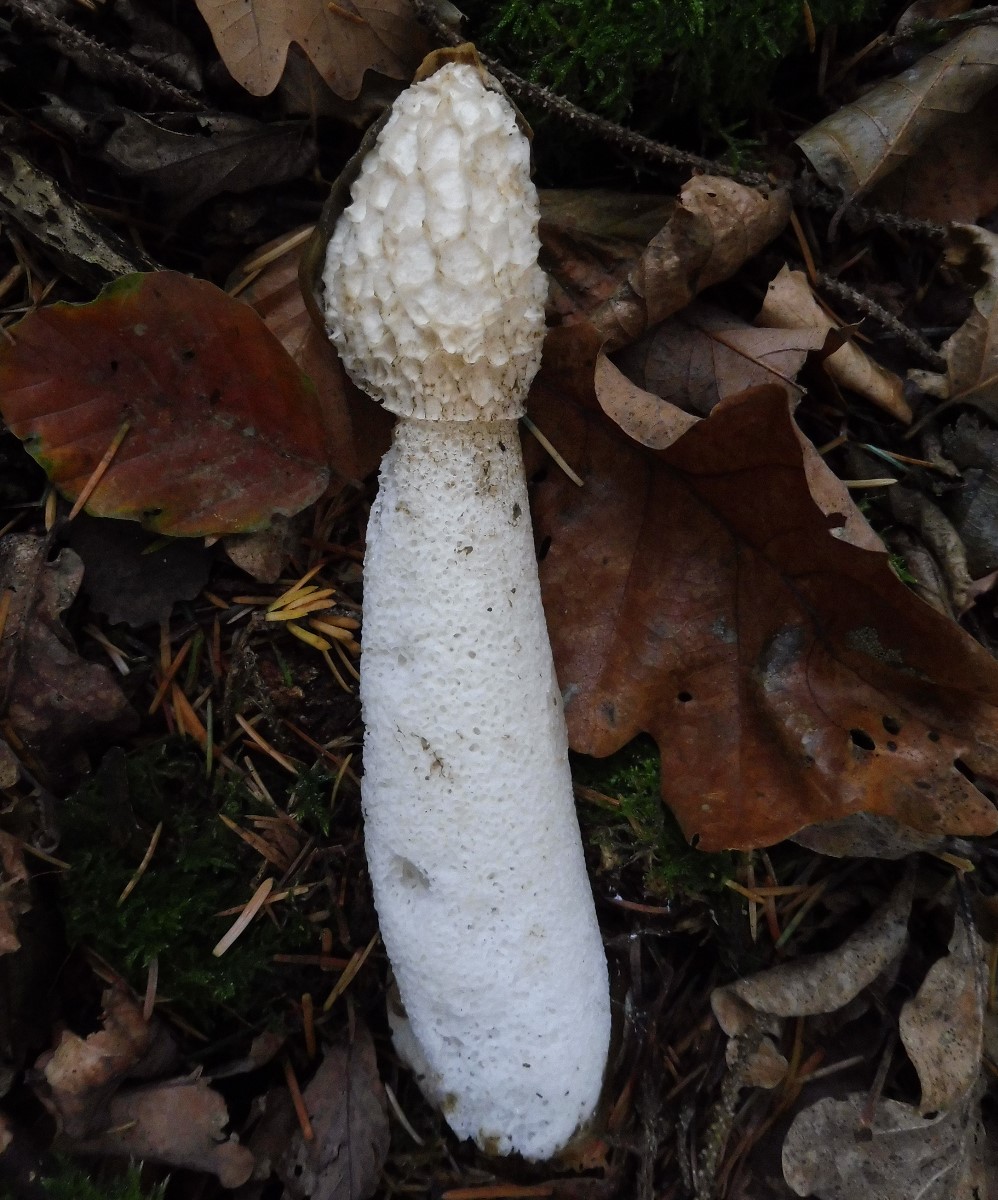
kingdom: Fungi
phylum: Basidiomycota
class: Agaricomycetes
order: Phallales
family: Phallaceae
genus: Phallus
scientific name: Phallus impudicus
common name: almindelig stinksvamp
